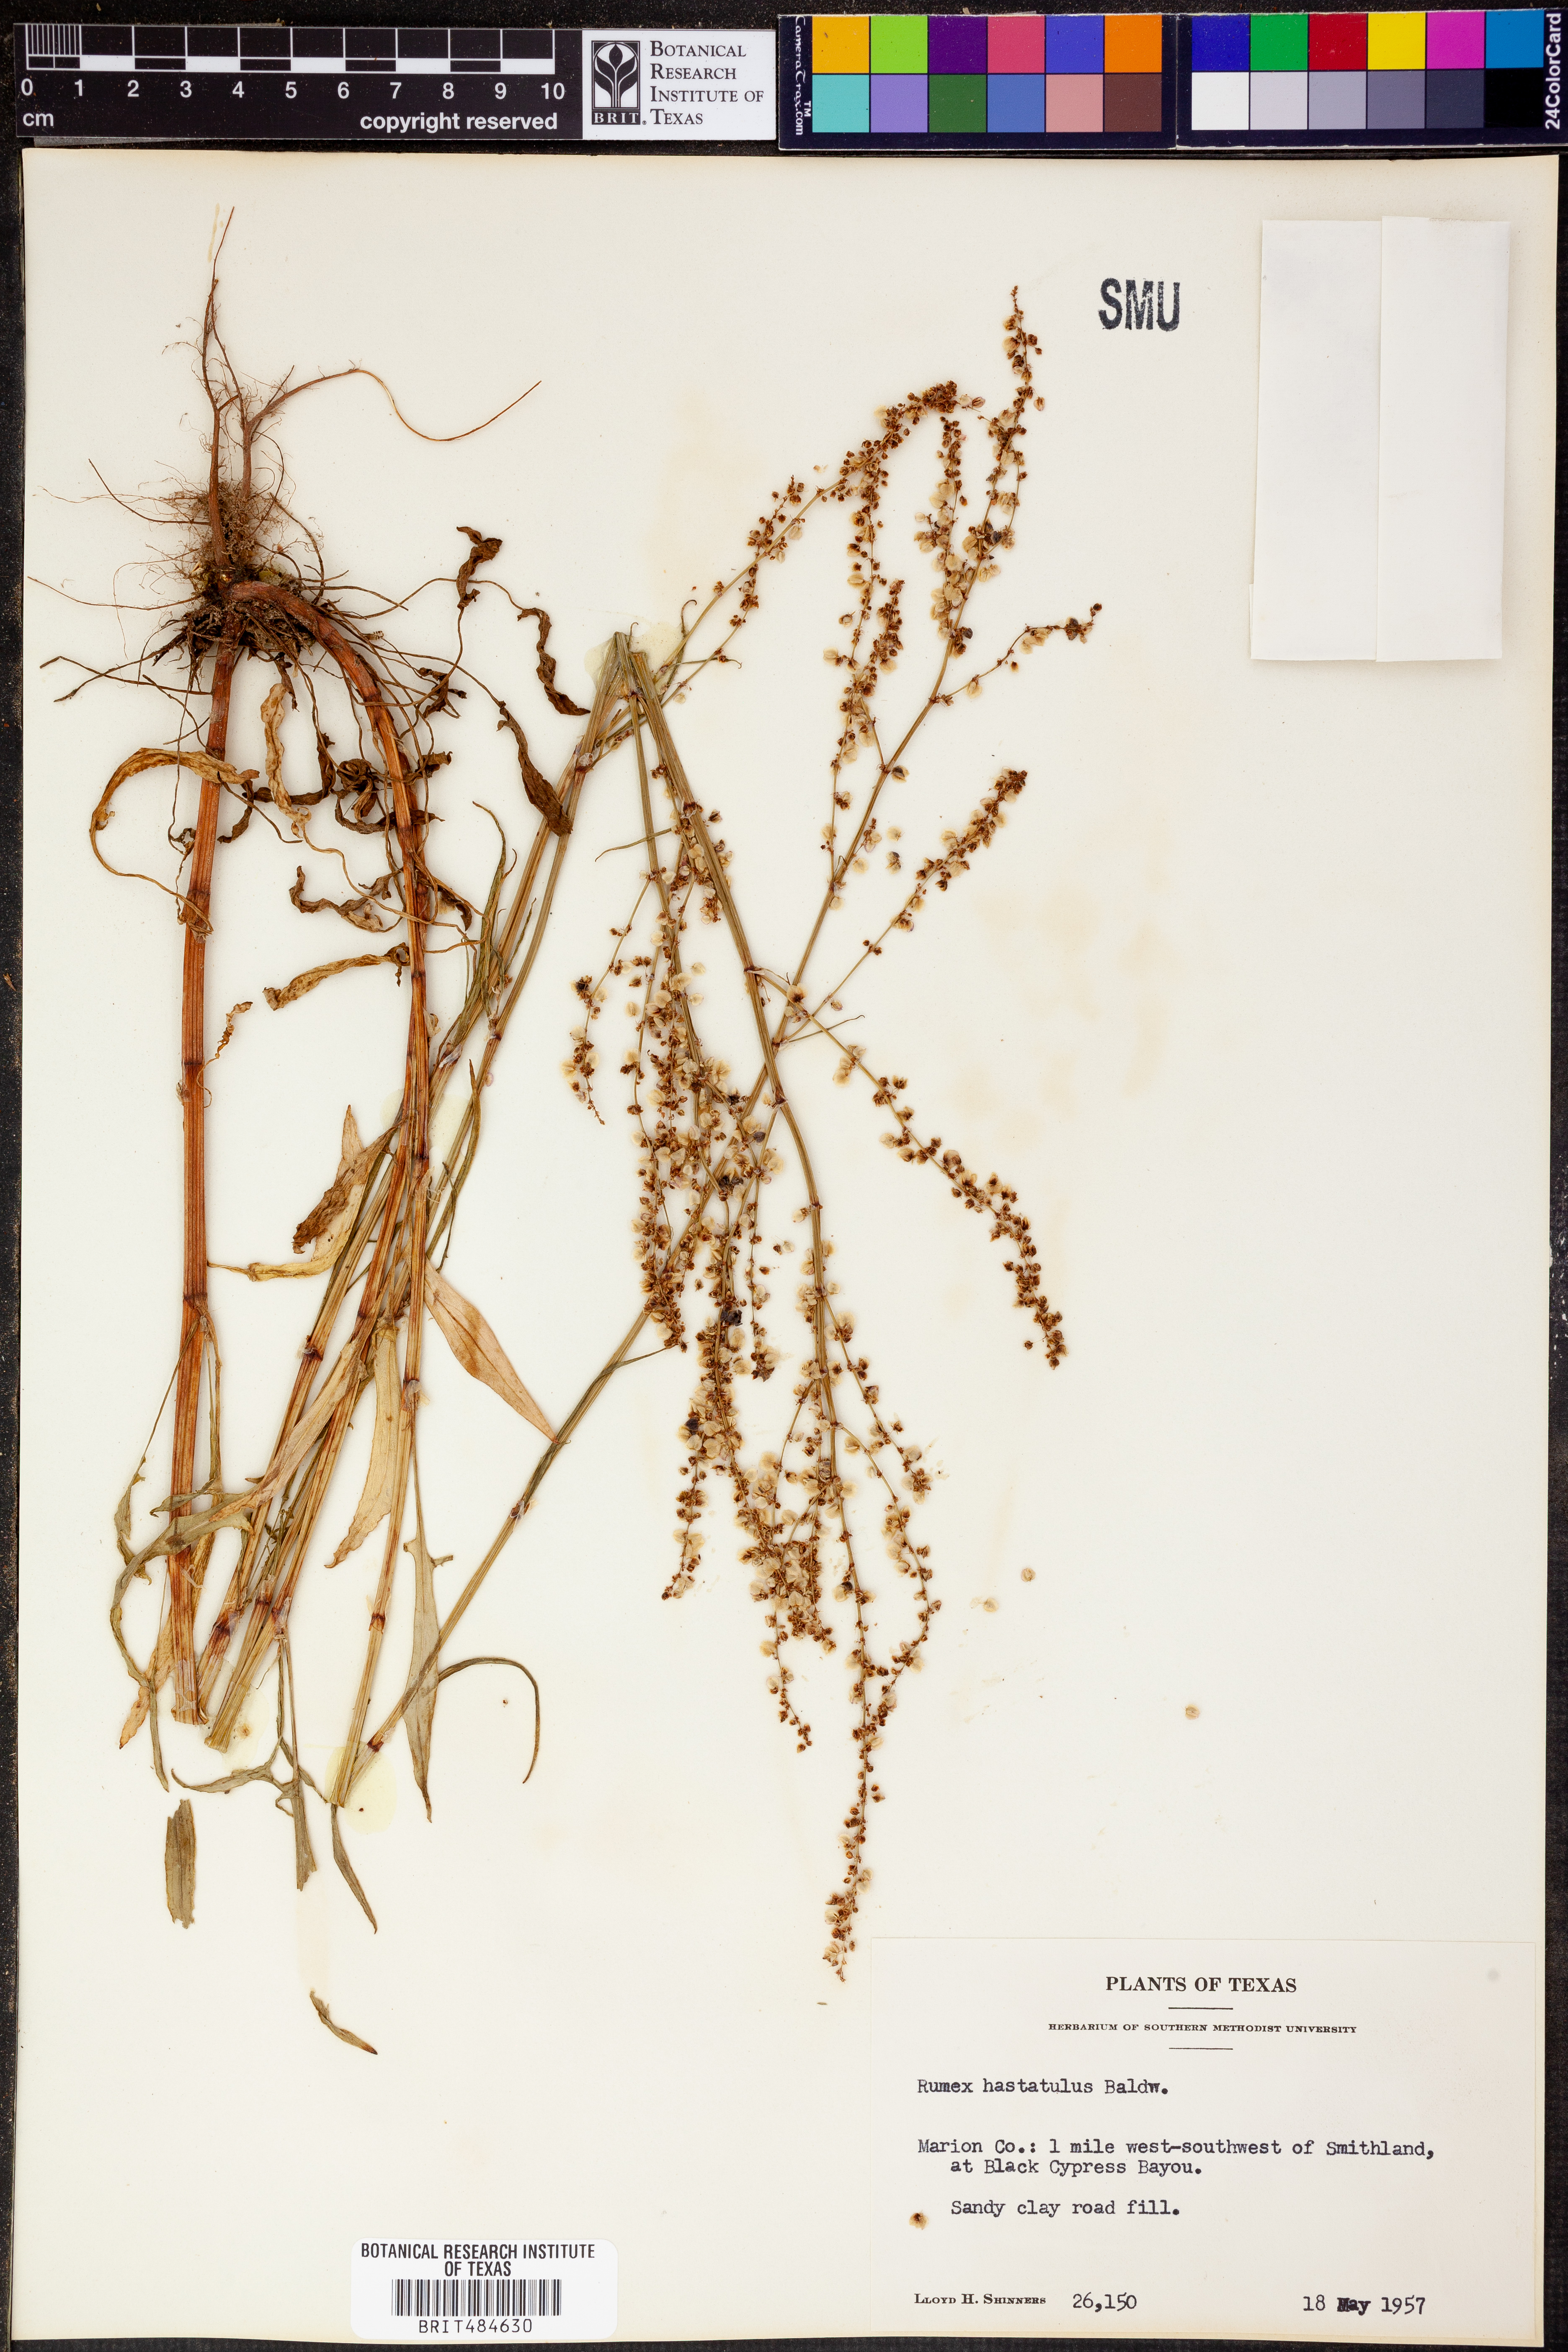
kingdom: Plantae
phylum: Tracheophyta
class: Magnoliopsida
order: Caryophyllales
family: Polygonaceae
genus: Rumex
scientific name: Rumex hastatulus
